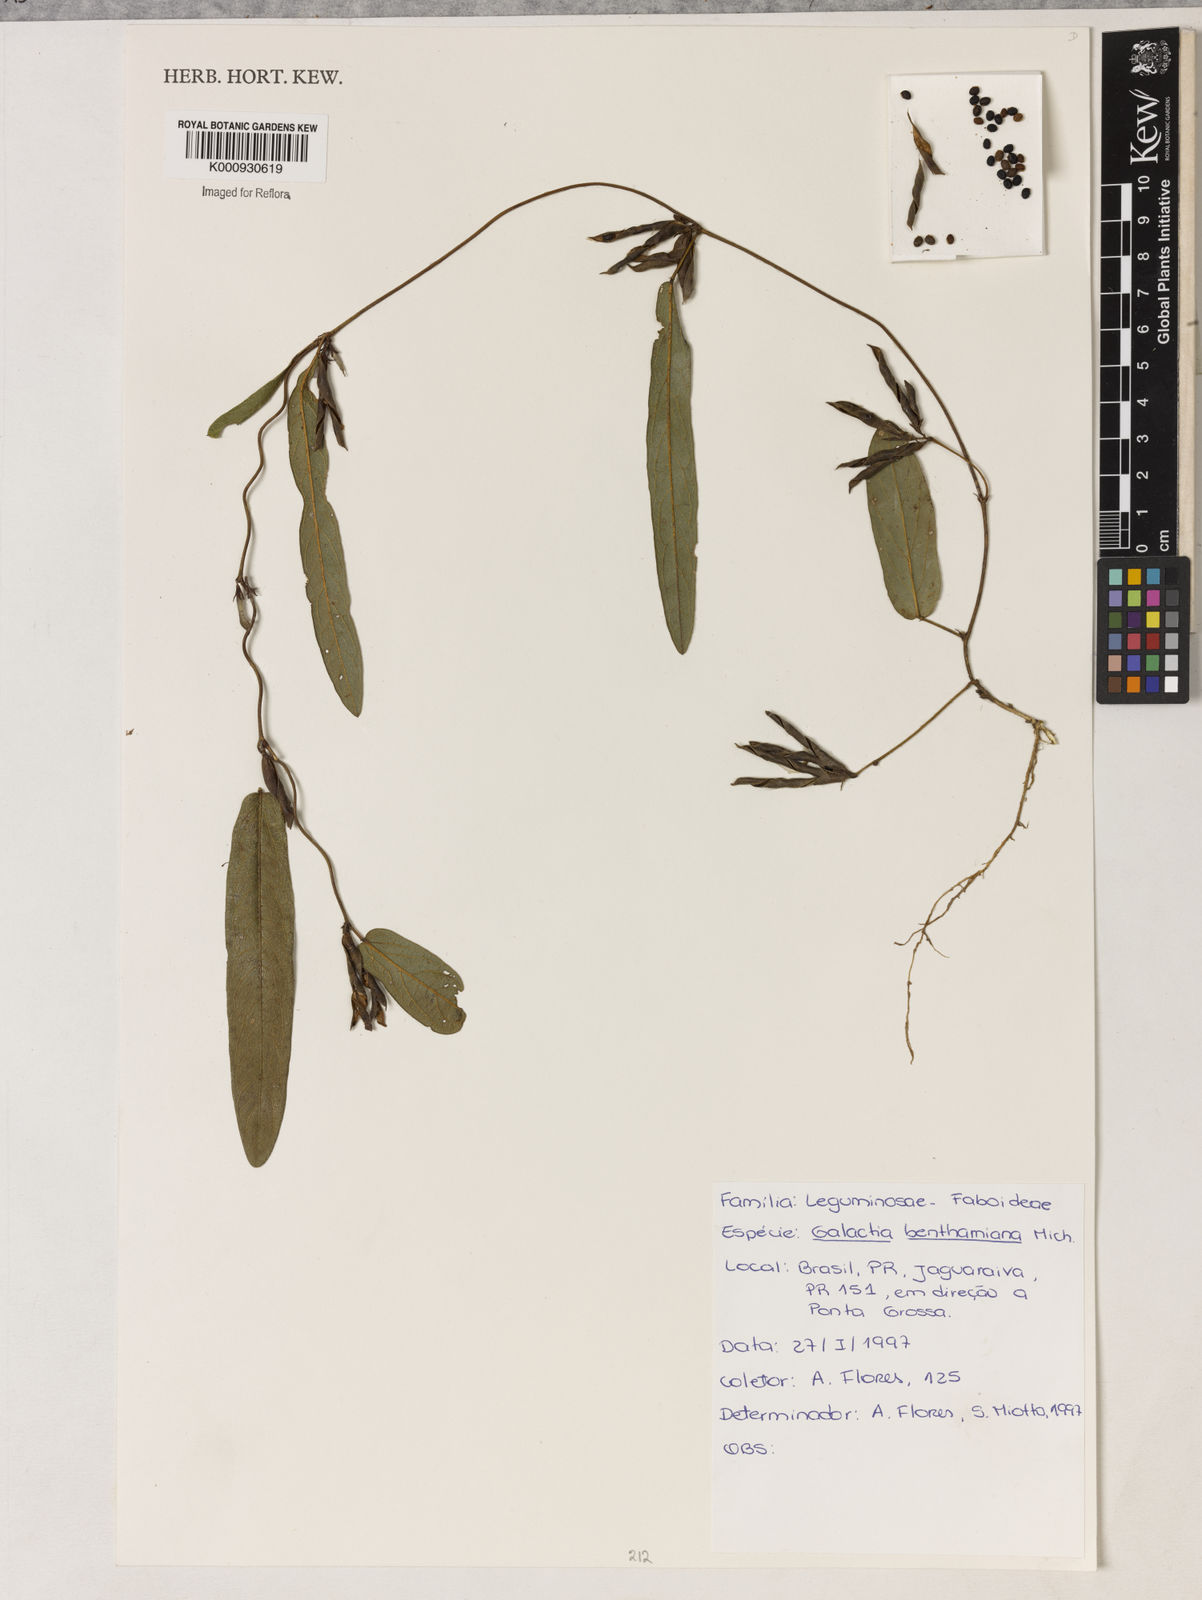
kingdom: Plantae
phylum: Tracheophyta
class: Magnoliopsida
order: Fabales
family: Fabaceae
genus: Galactia
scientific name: Galactia benthamiana
